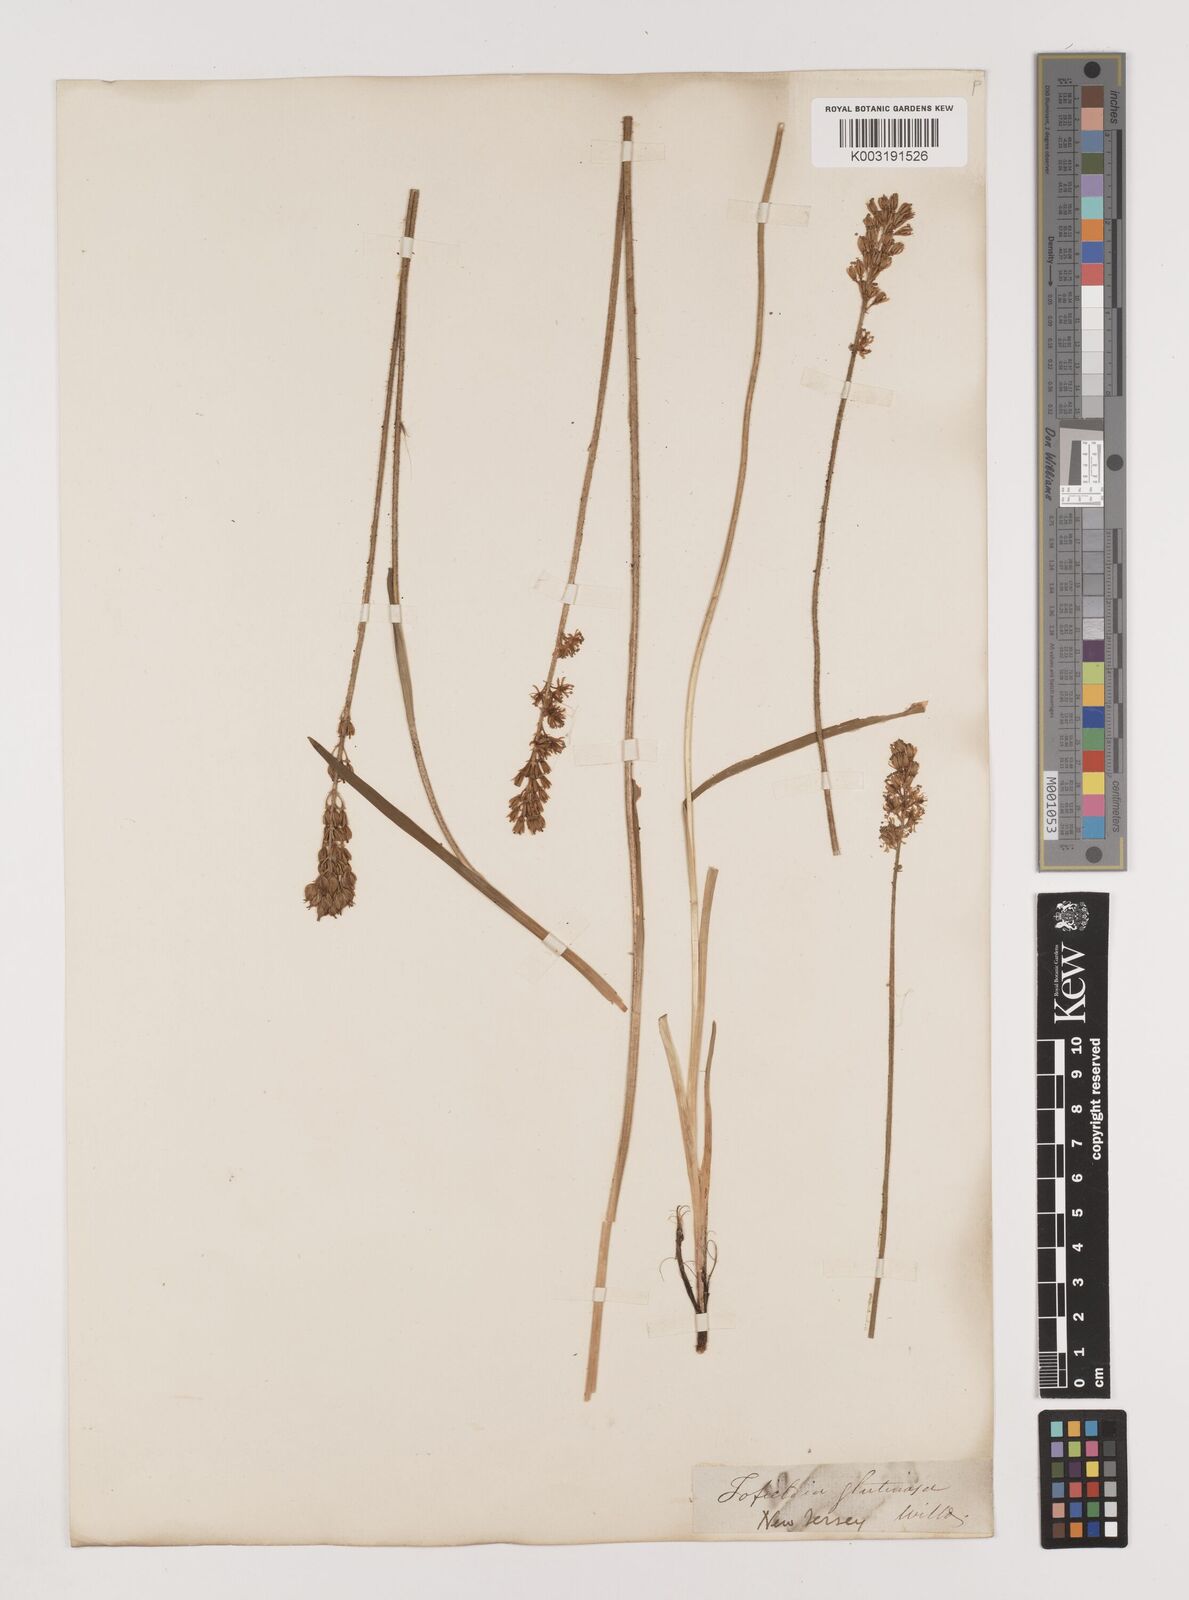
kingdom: Plantae
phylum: Tracheophyta
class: Liliopsida
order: Alismatales
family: Tofieldiaceae
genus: Triantha
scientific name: Triantha glutinosa
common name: Glutinous tofieldia
